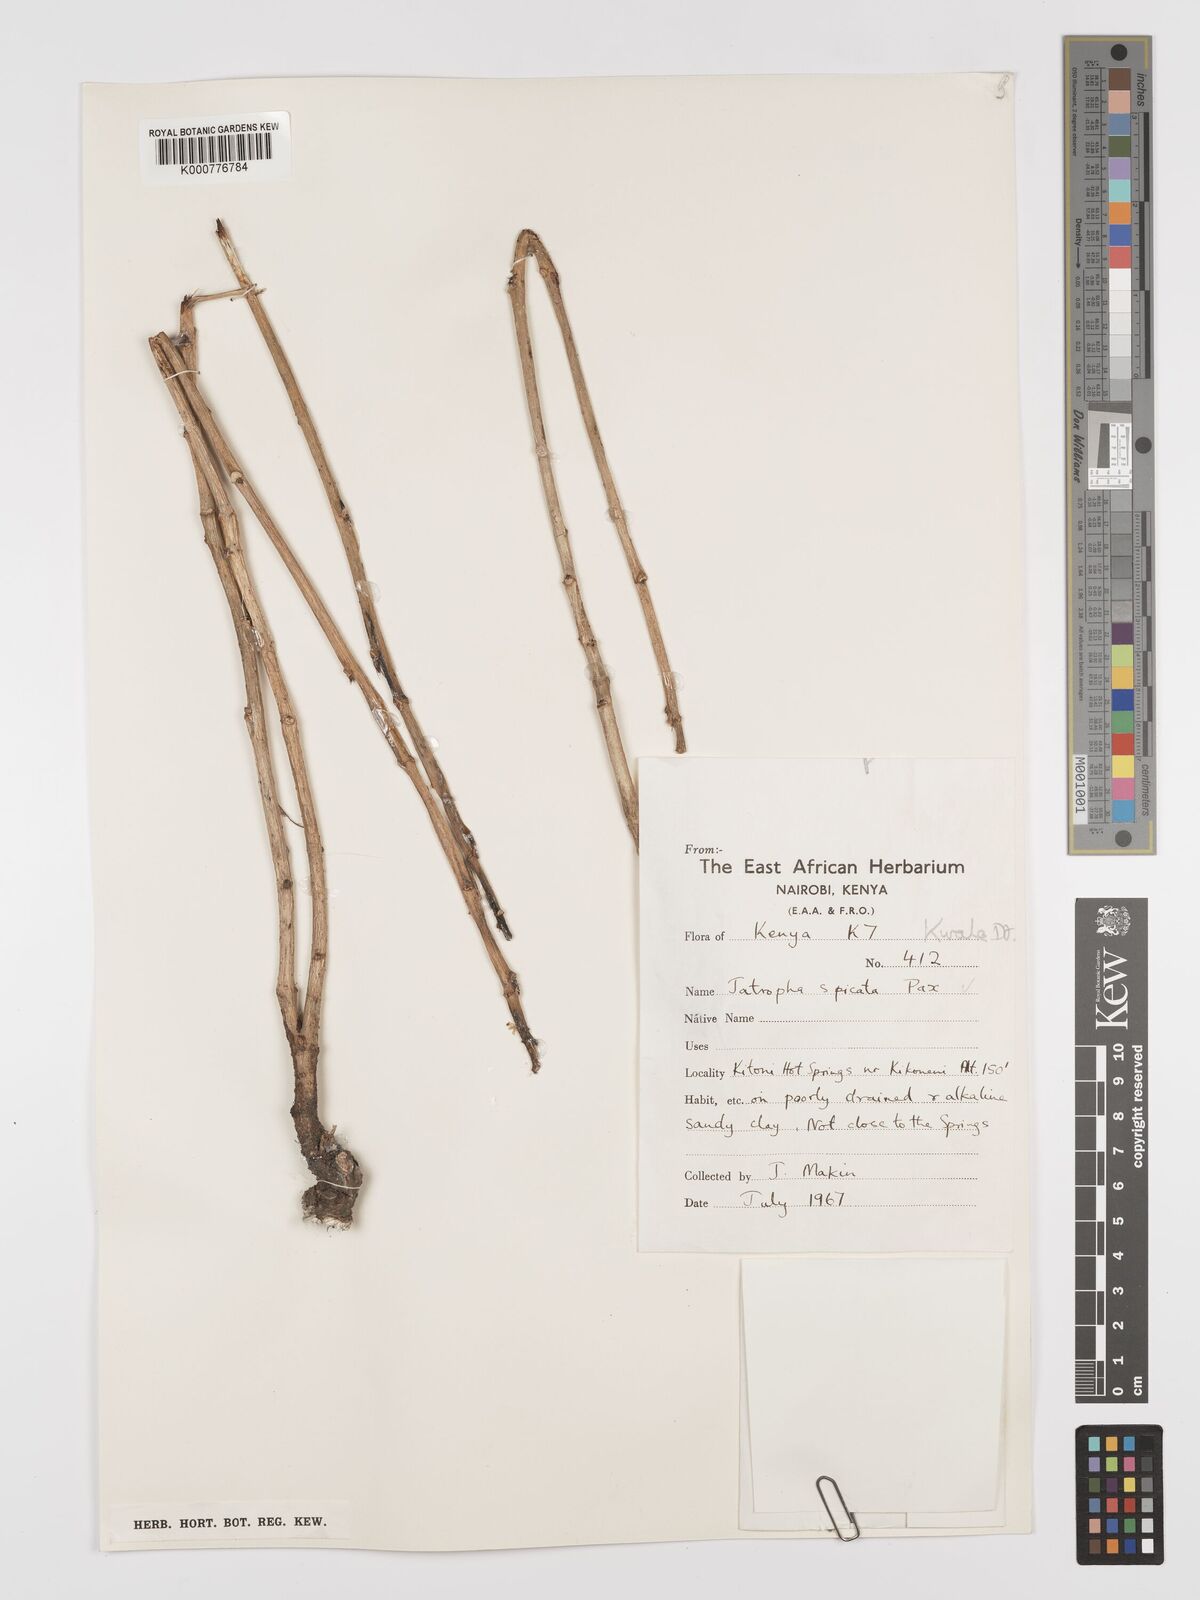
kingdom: Plantae
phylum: Tracheophyta
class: Magnoliopsida
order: Malpighiales
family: Euphorbiaceae
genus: Jatropha
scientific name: Jatropha spicata
